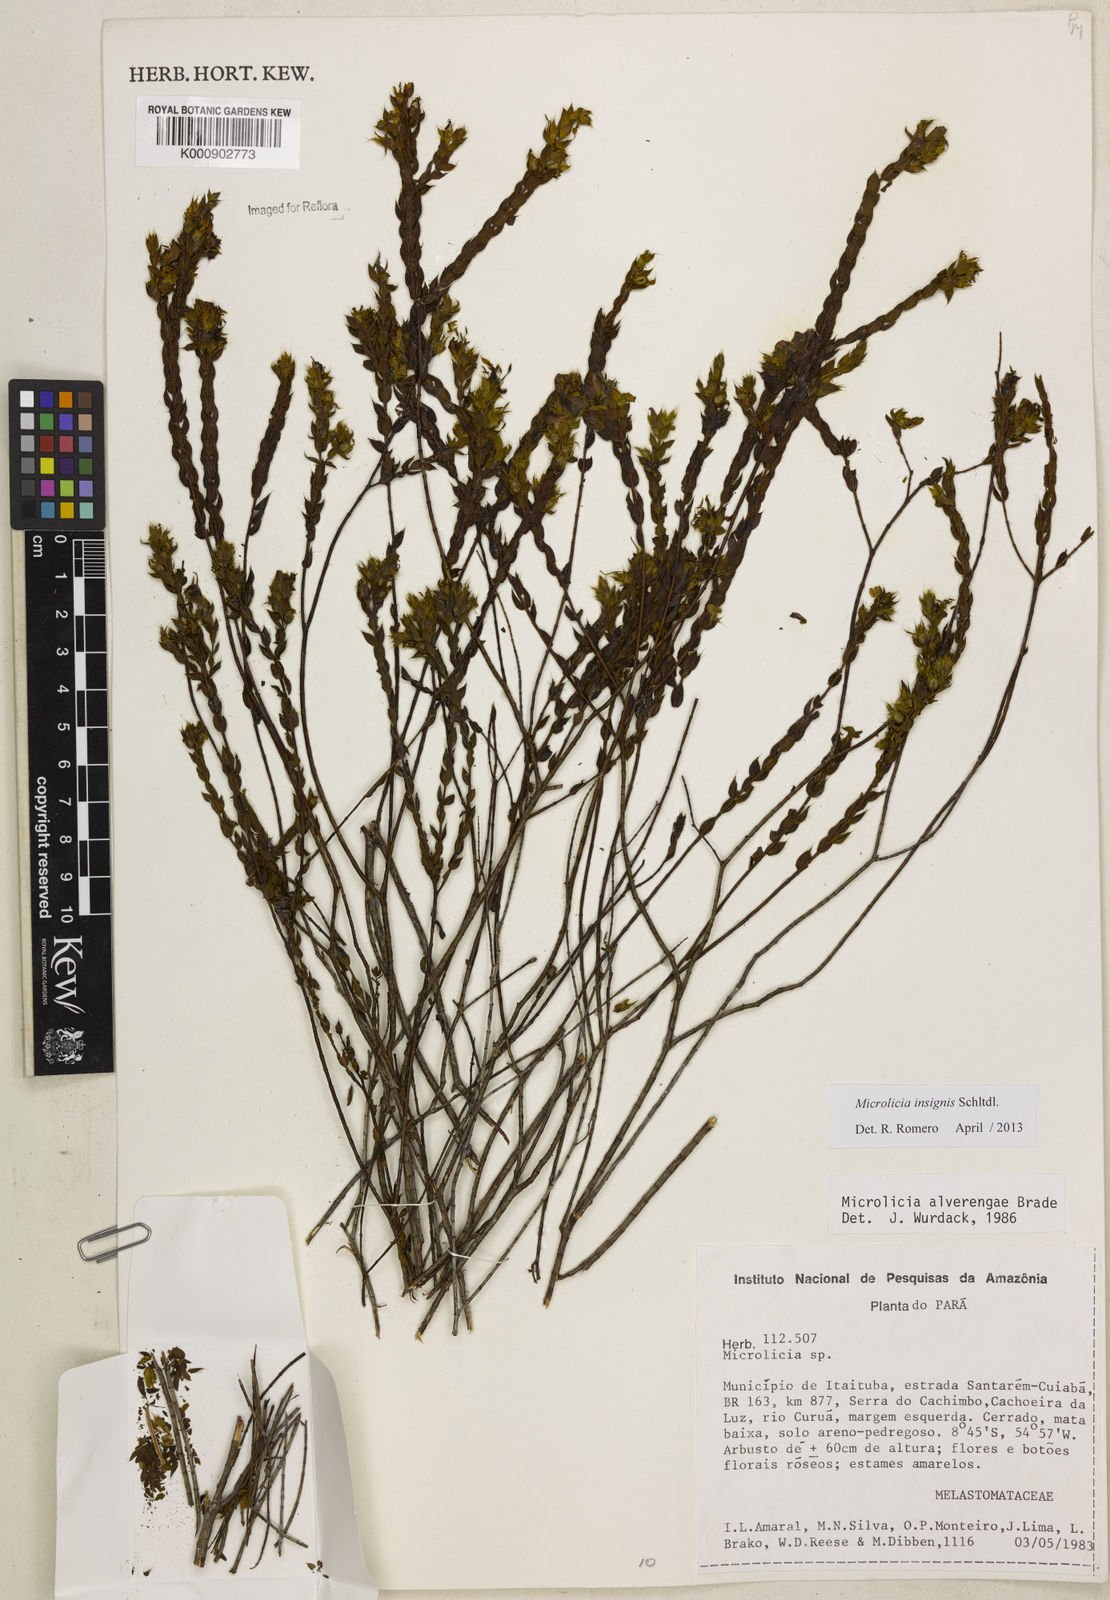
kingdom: Plantae
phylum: Tracheophyta
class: Magnoliopsida
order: Myrtales
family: Melastomataceae
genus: Microlicia
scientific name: Microlicia neglecta
